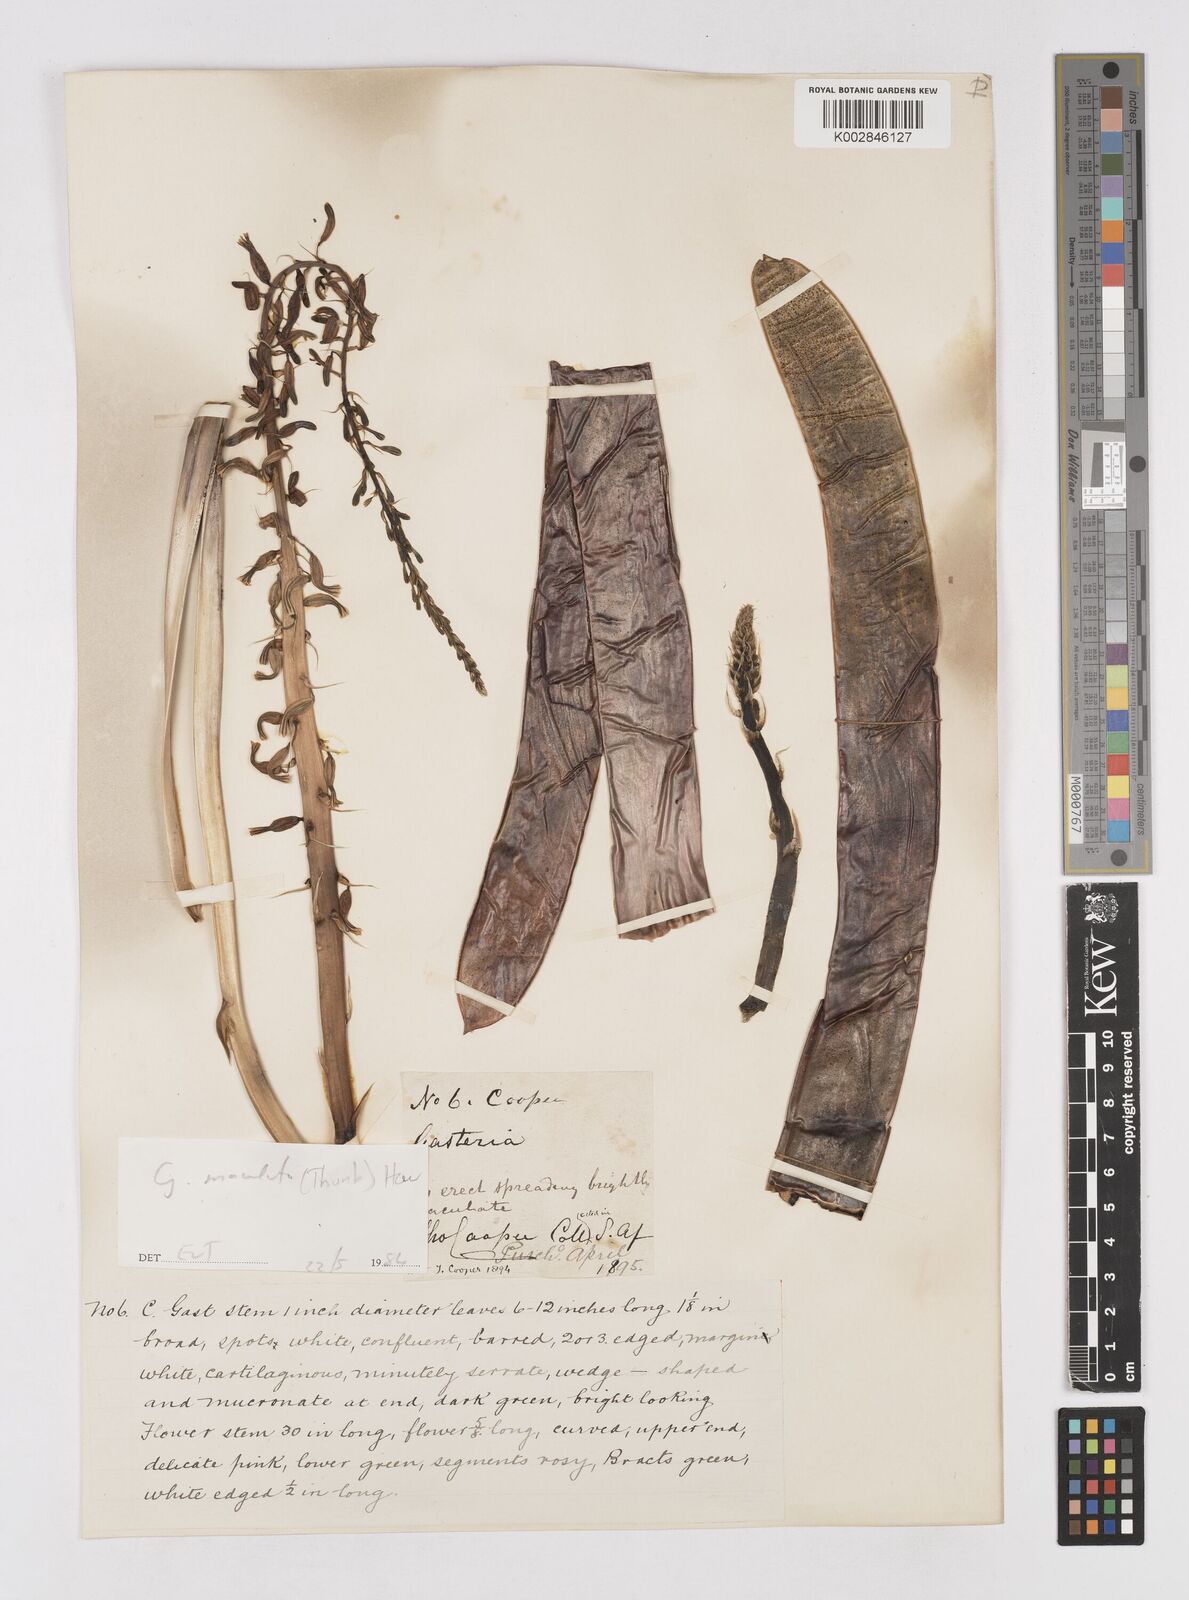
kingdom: Plantae
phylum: Tracheophyta
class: Liliopsida
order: Asparagales
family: Asphodelaceae
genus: Gasteria
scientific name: Gasteria
